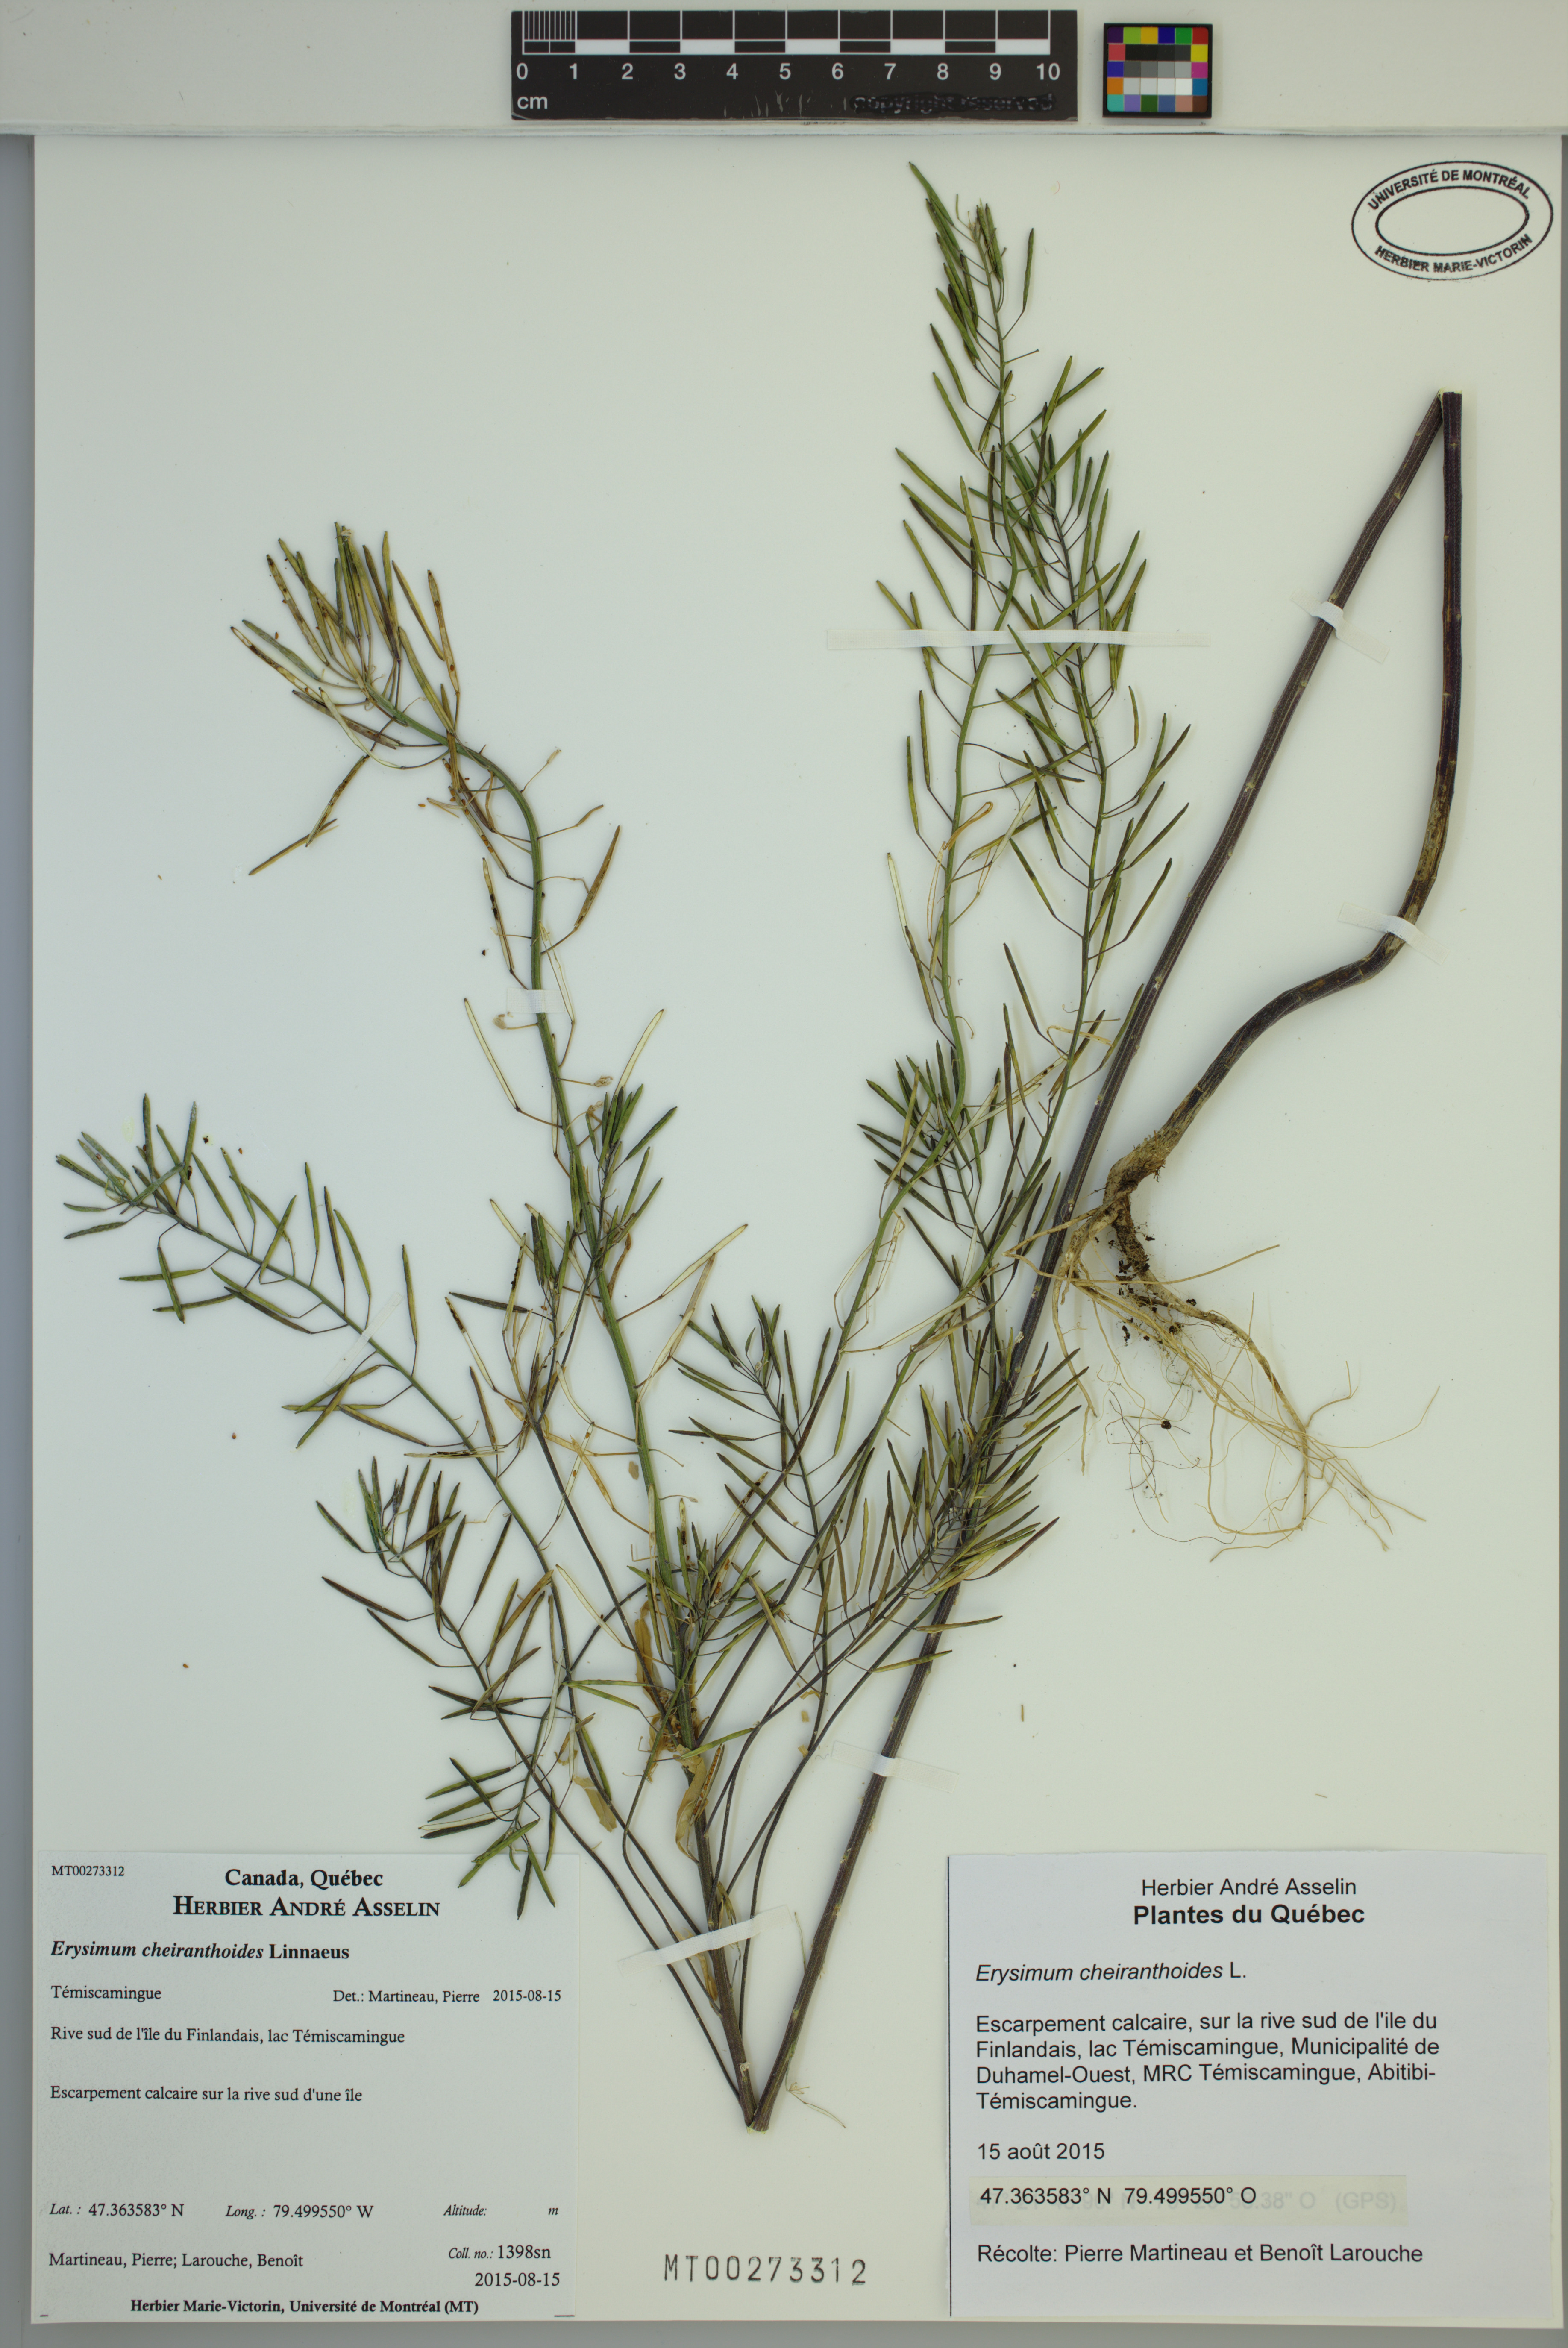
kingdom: Plantae
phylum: Tracheophyta
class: Magnoliopsida
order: Brassicales
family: Brassicaceae
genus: Erysimum
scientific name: Erysimum cheiranthoides
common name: Treacle mustard
